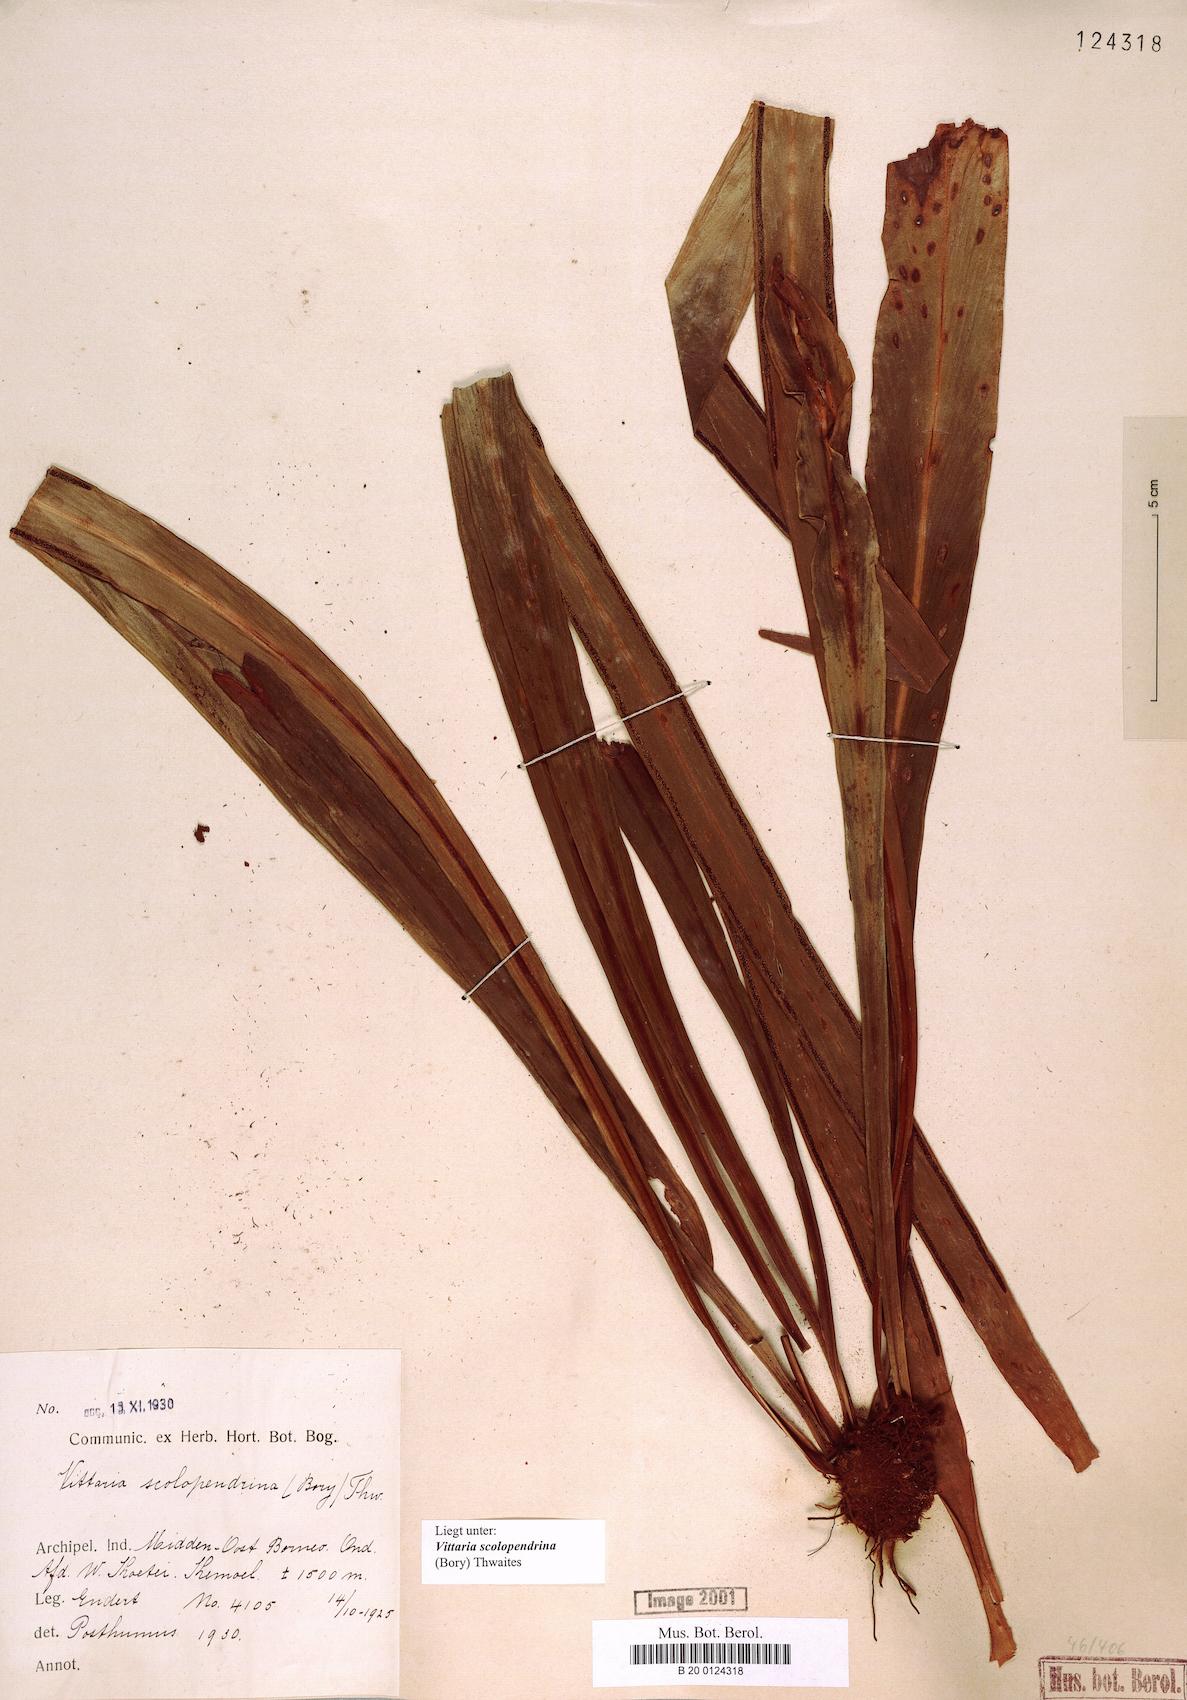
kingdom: Plantae
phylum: Tracheophyta
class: Polypodiopsida
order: Polypodiales
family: Pteridaceae
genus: Haplopteris
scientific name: Haplopteris scolopendrina
